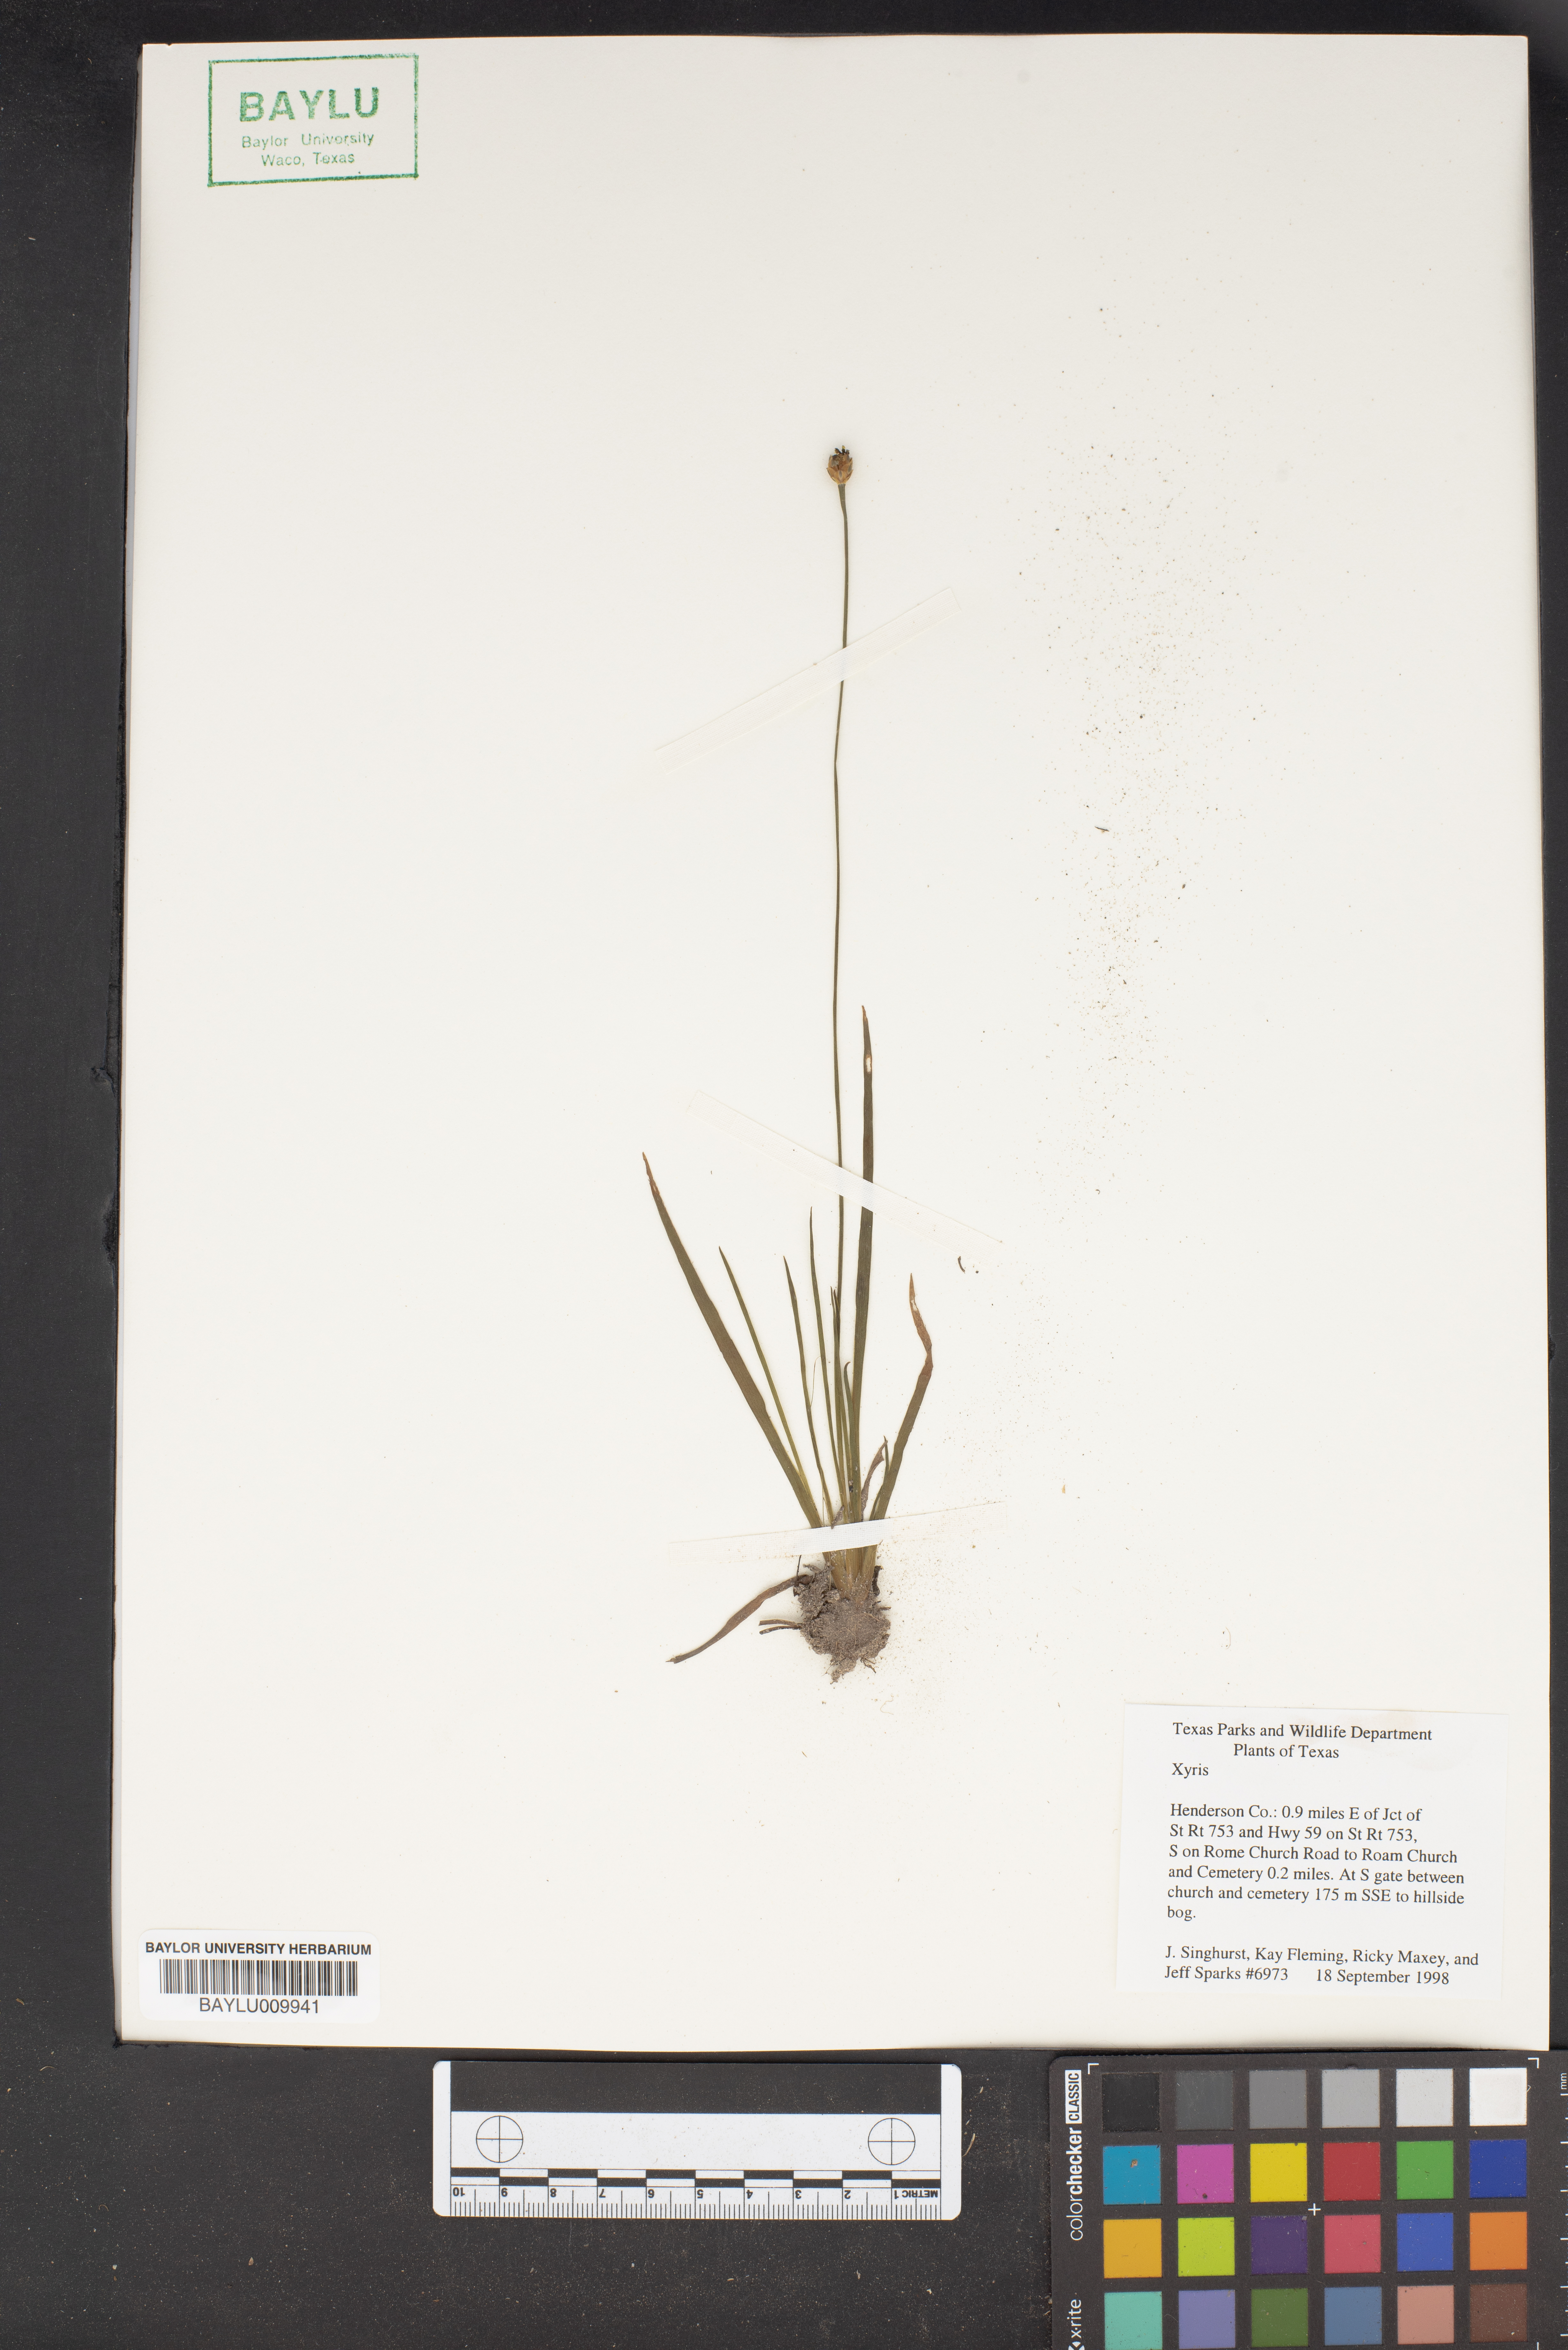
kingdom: Plantae
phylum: Tracheophyta
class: Liliopsida
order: Poales
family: Xyridaceae
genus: Xyris
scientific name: Xyris
